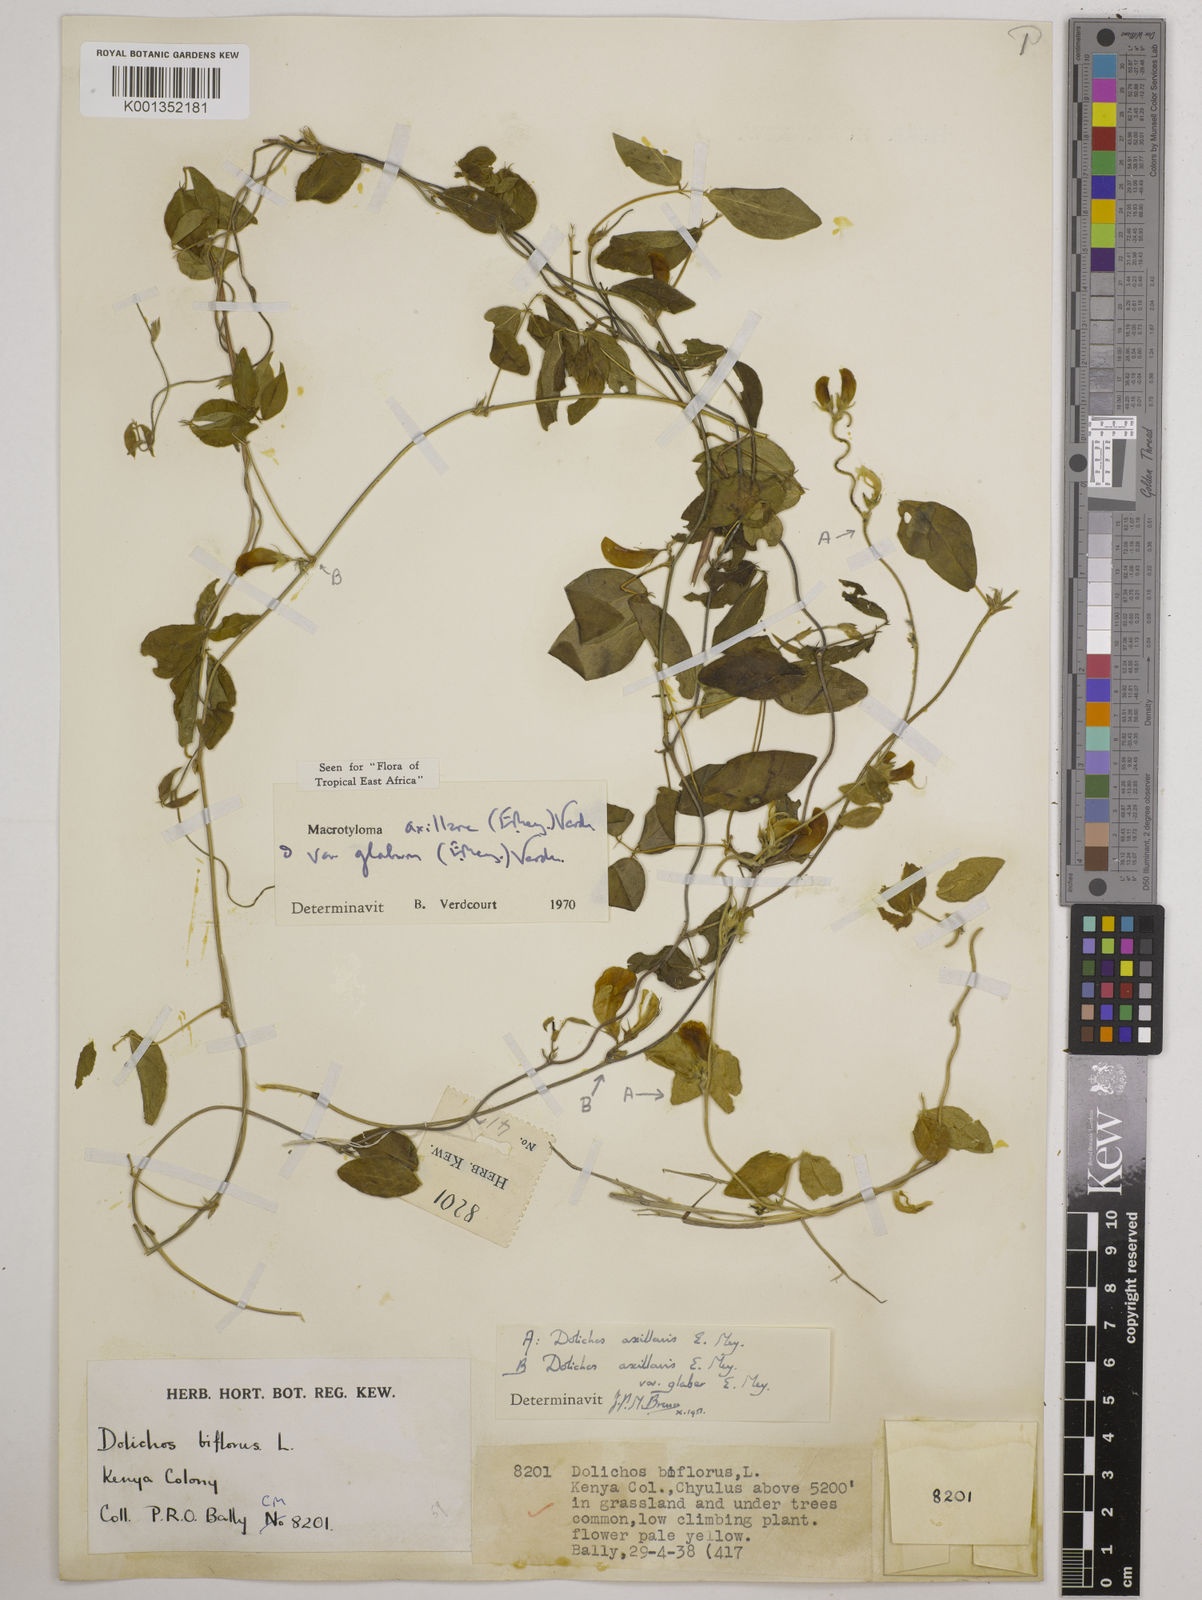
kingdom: Plantae
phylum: Tracheophyta
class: Magnoliopsida
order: Fabales
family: Fabaceae
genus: Macrotyloma
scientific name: Macrotyloma
